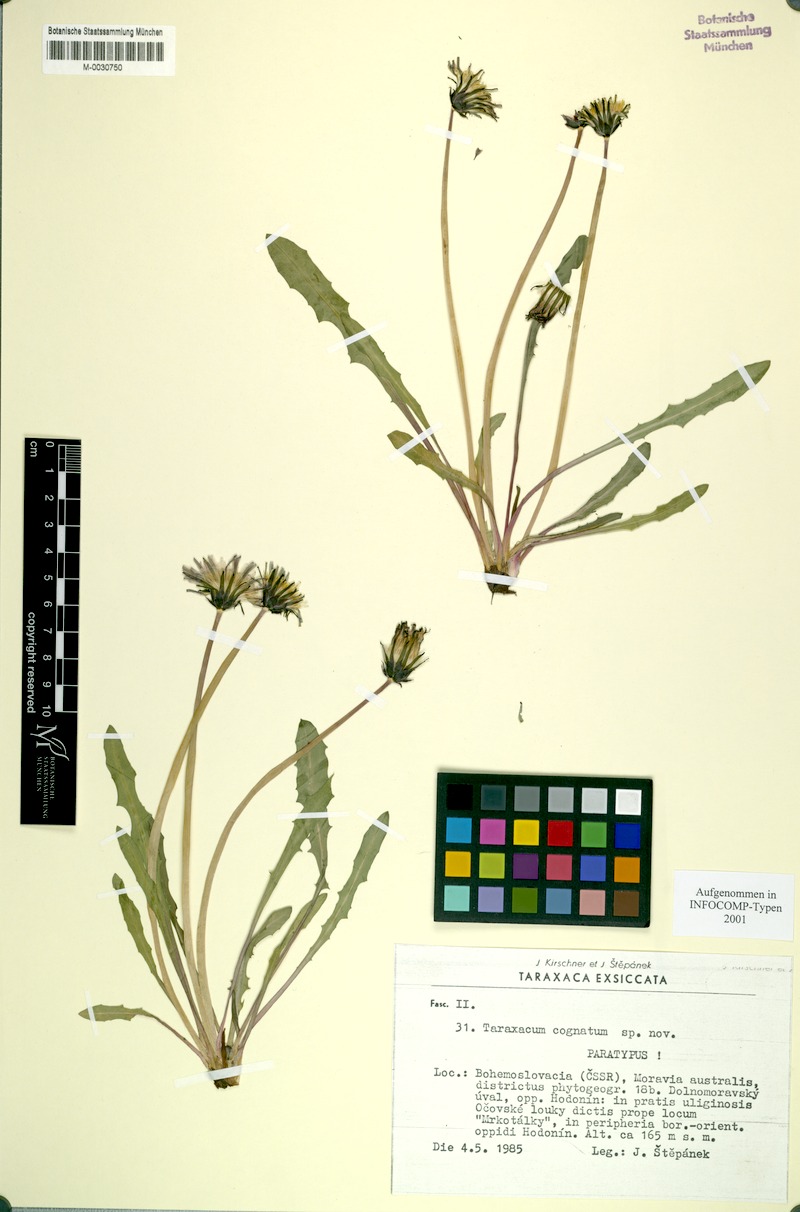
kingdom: Plantae
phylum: Tracheophyta
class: Magnoliopsida
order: Asterales
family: Asteraceae
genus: Taraxacum
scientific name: Taraxacum cognatum
